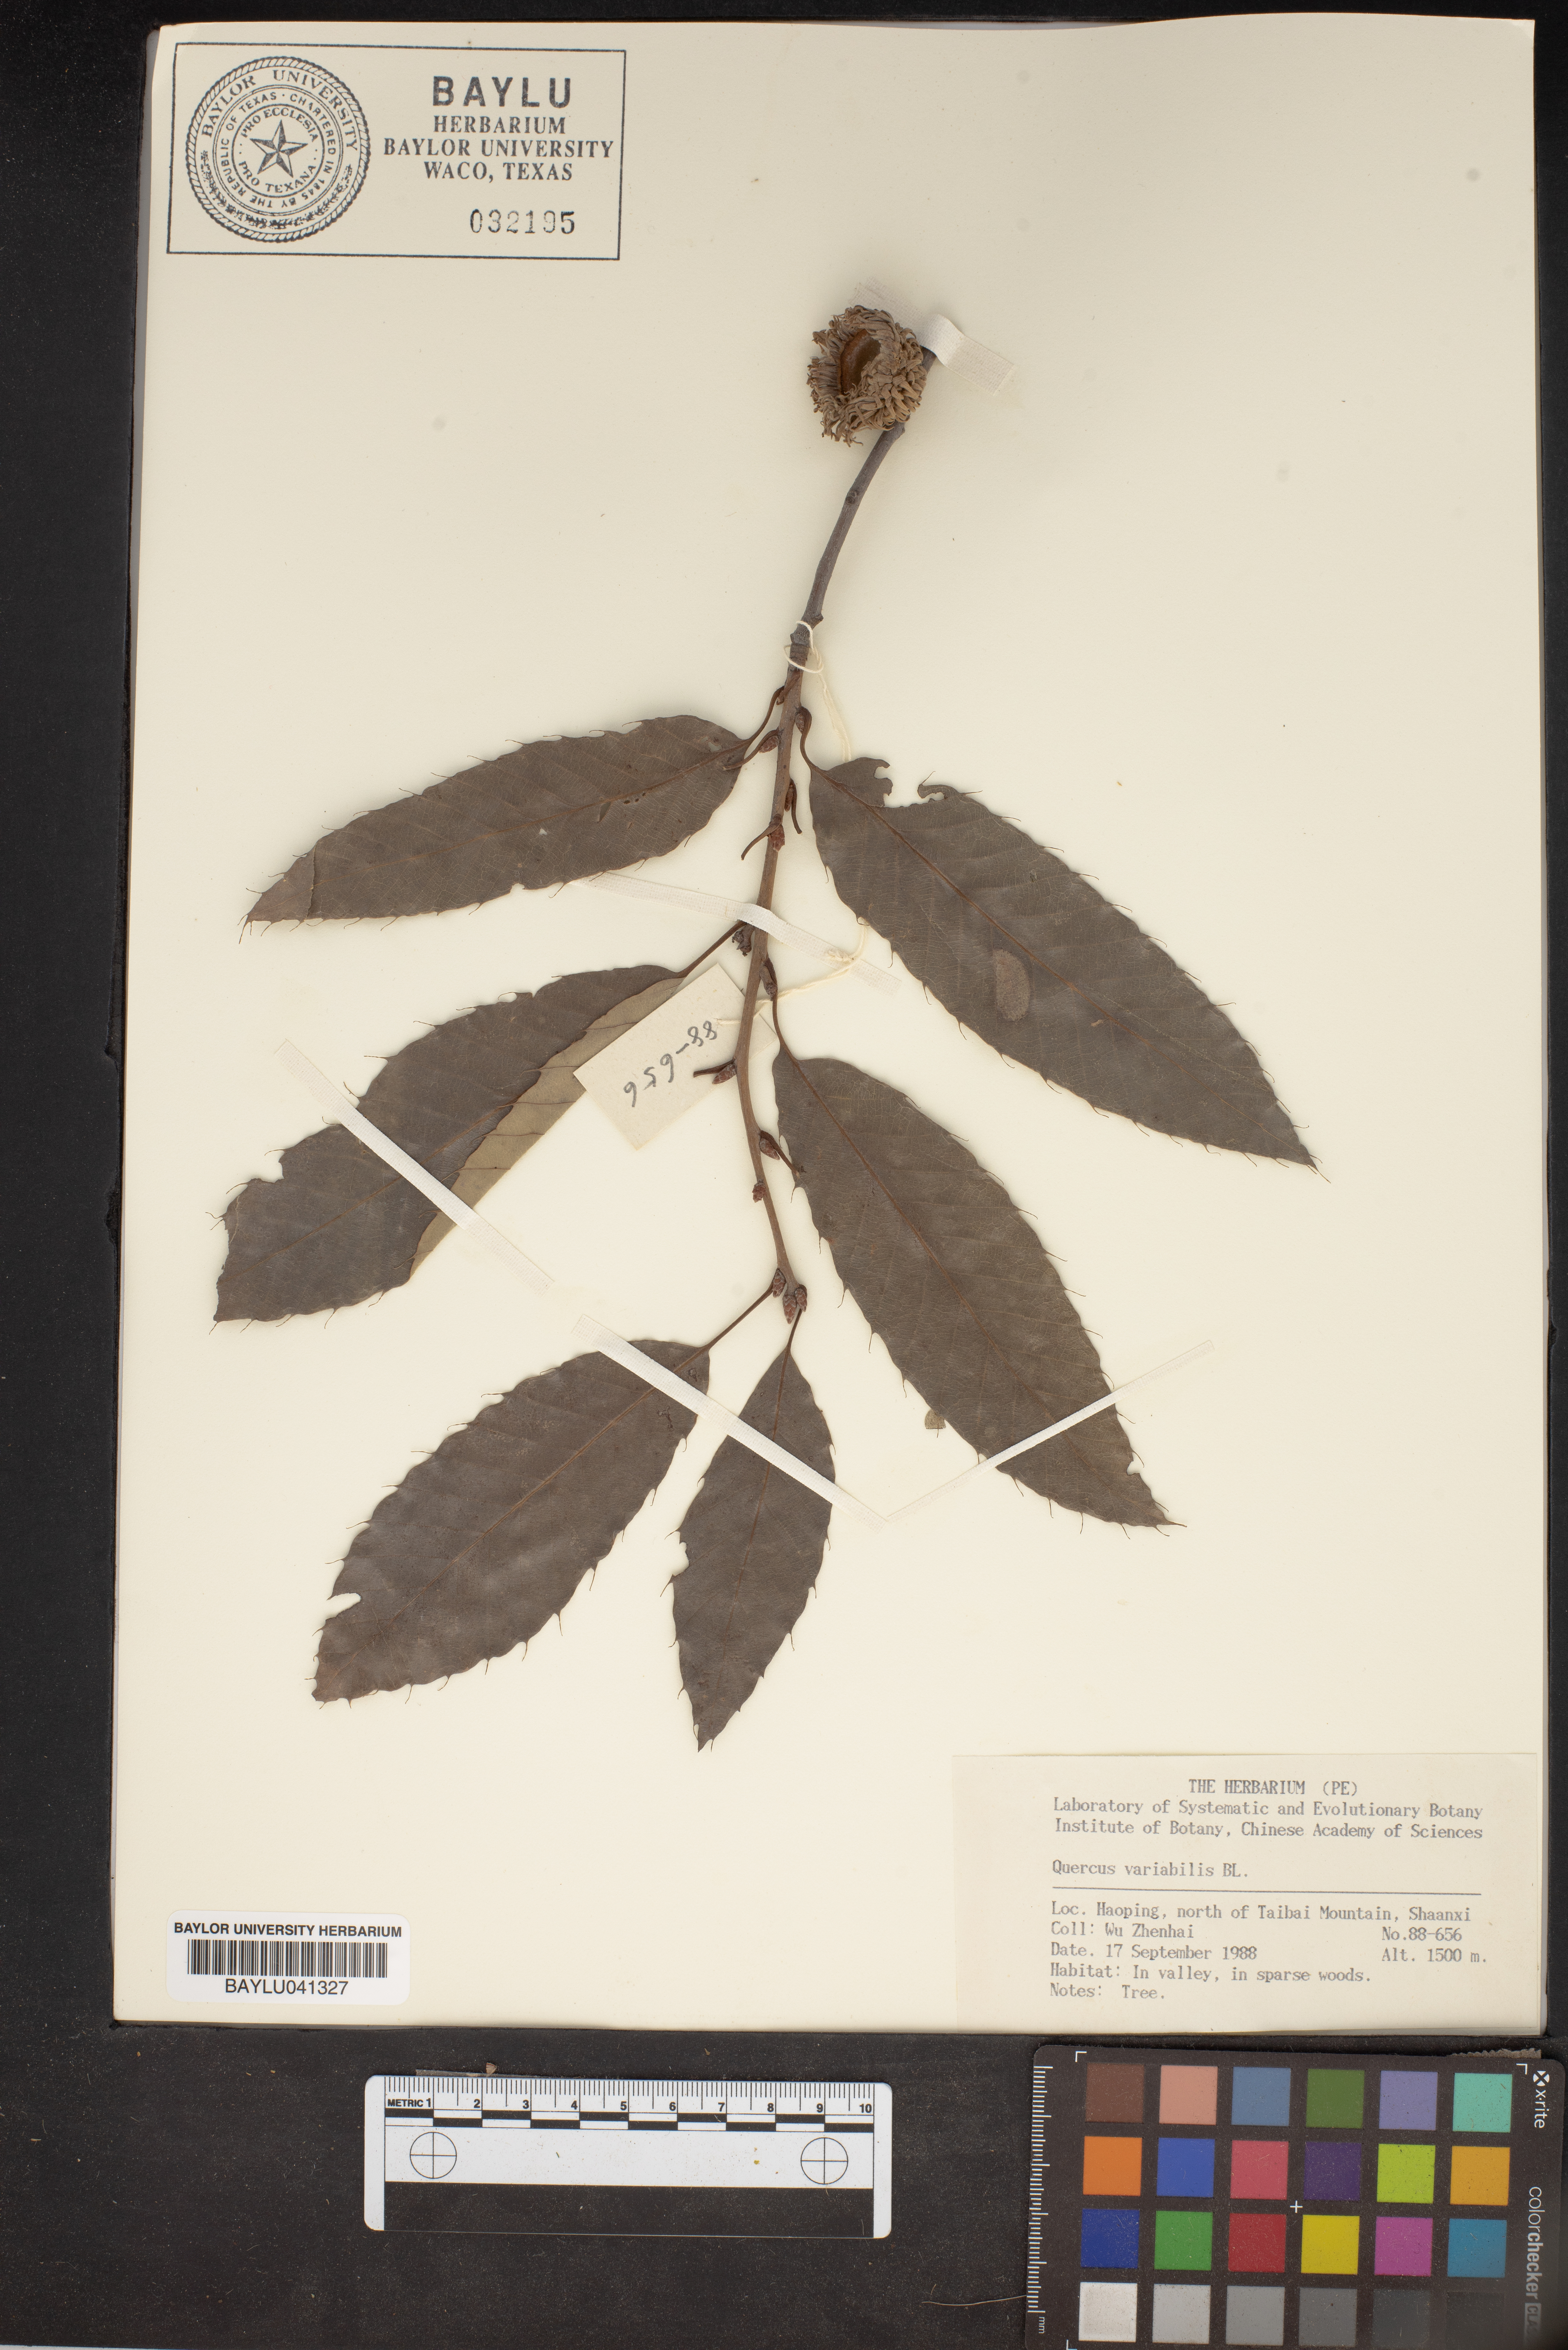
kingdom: Plantae
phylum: Tracheophyta
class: Magnoliopsida
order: Fagales
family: Fagaceae
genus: Quercus
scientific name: Quercus variabilis
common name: Chinese cork oak
